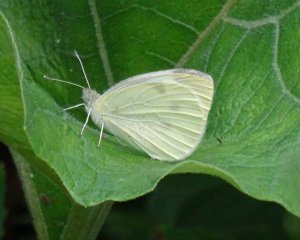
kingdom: Animalia
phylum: Arthropoda
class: Insecta
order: Lepidoptera
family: Pieridae
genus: Pieris
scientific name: Pieris rapae
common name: Cabbage White
